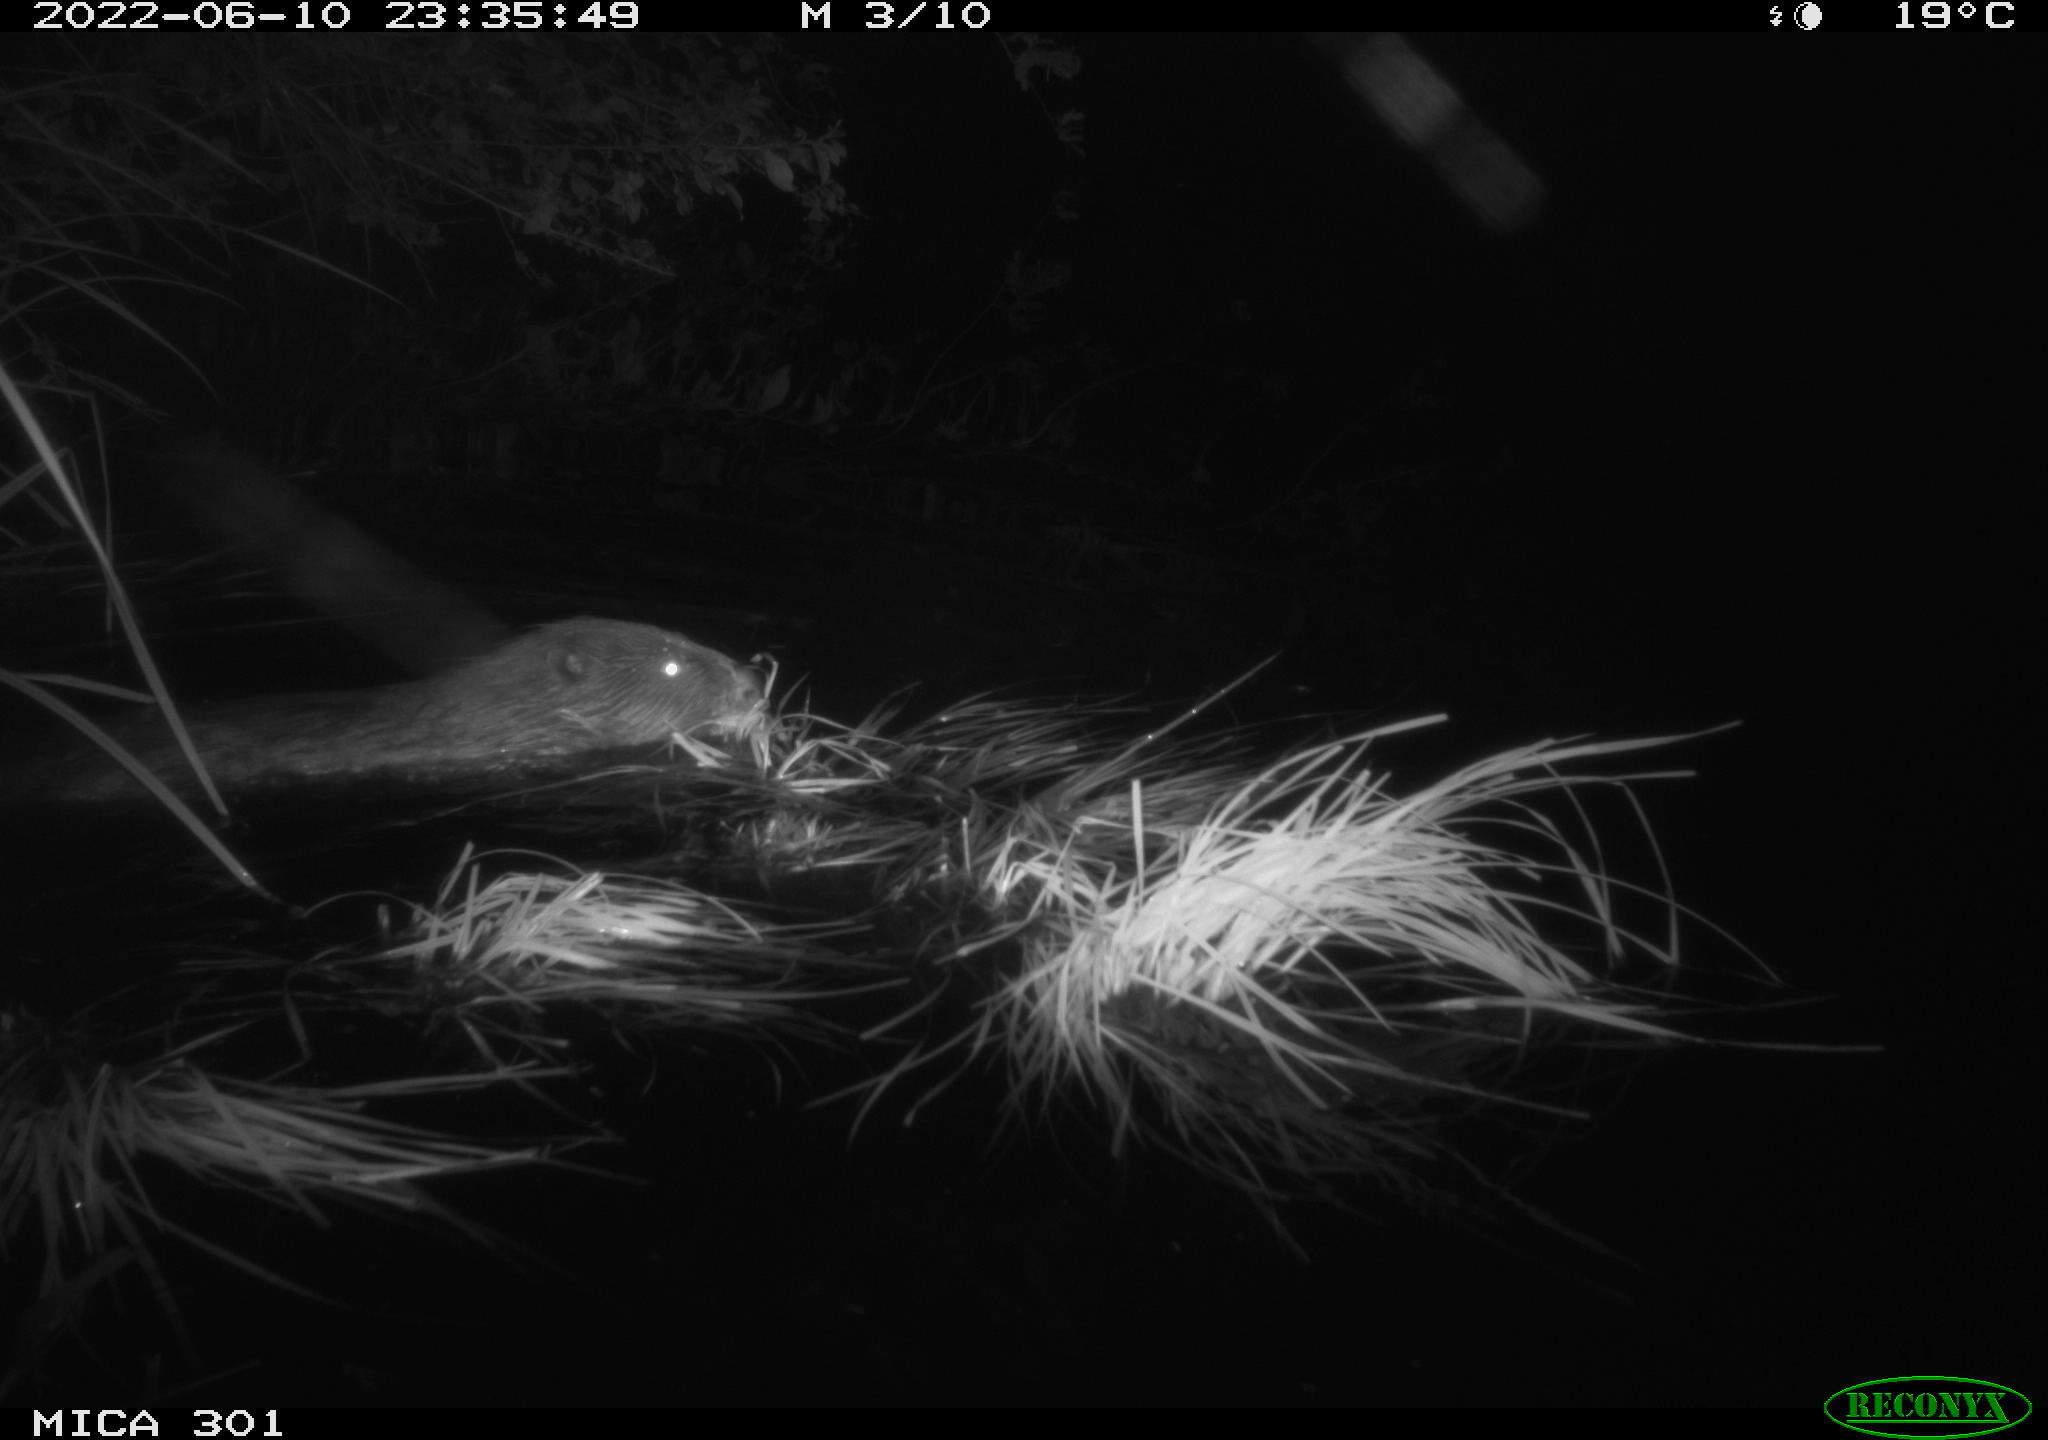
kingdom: Animalia
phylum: Chordata
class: Mammalia
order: Rodentia
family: Castoridae
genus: Castor
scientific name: Castor fiber
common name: Eurasian beaver
